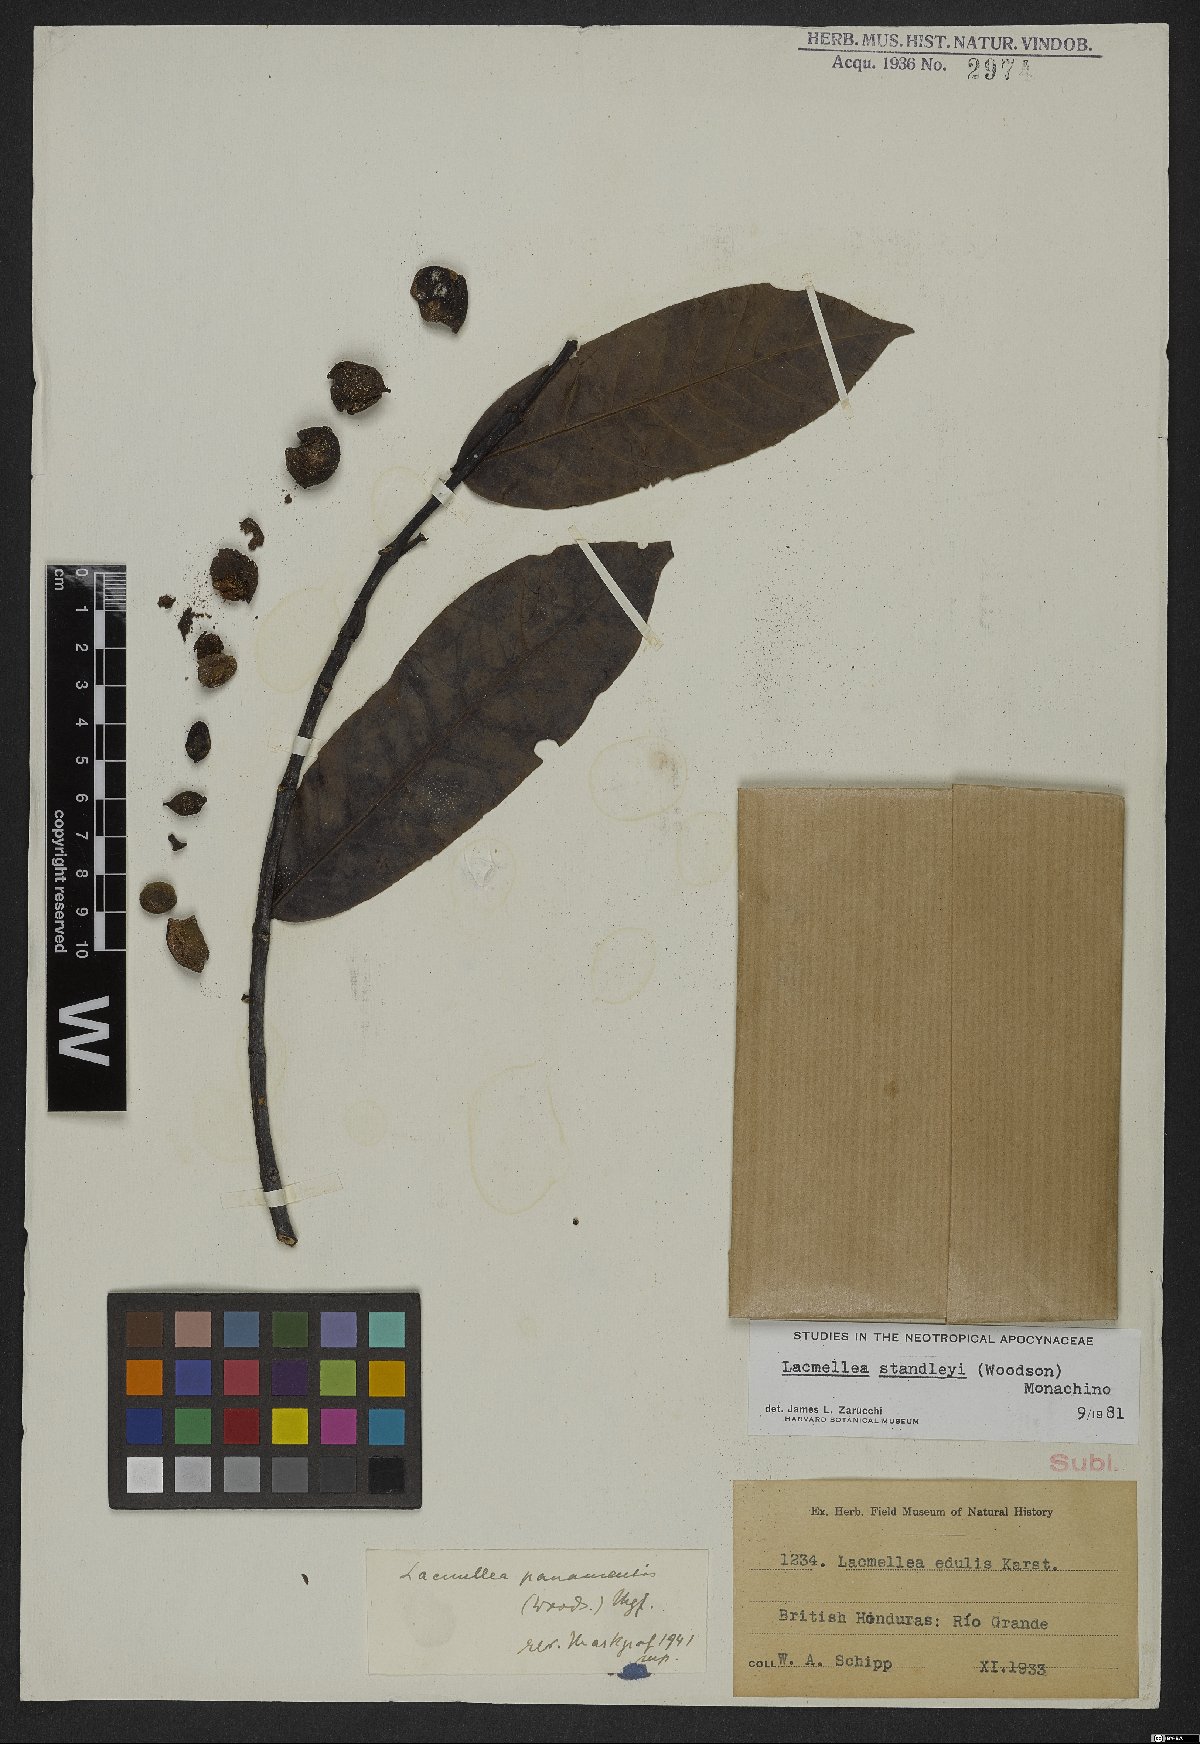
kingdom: Plantae
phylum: Tracheophyta
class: Magnoliopsida
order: Gentianales
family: Apocynaceae
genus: Lacmellea
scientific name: Lacmellea standleyi
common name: Milk tree
